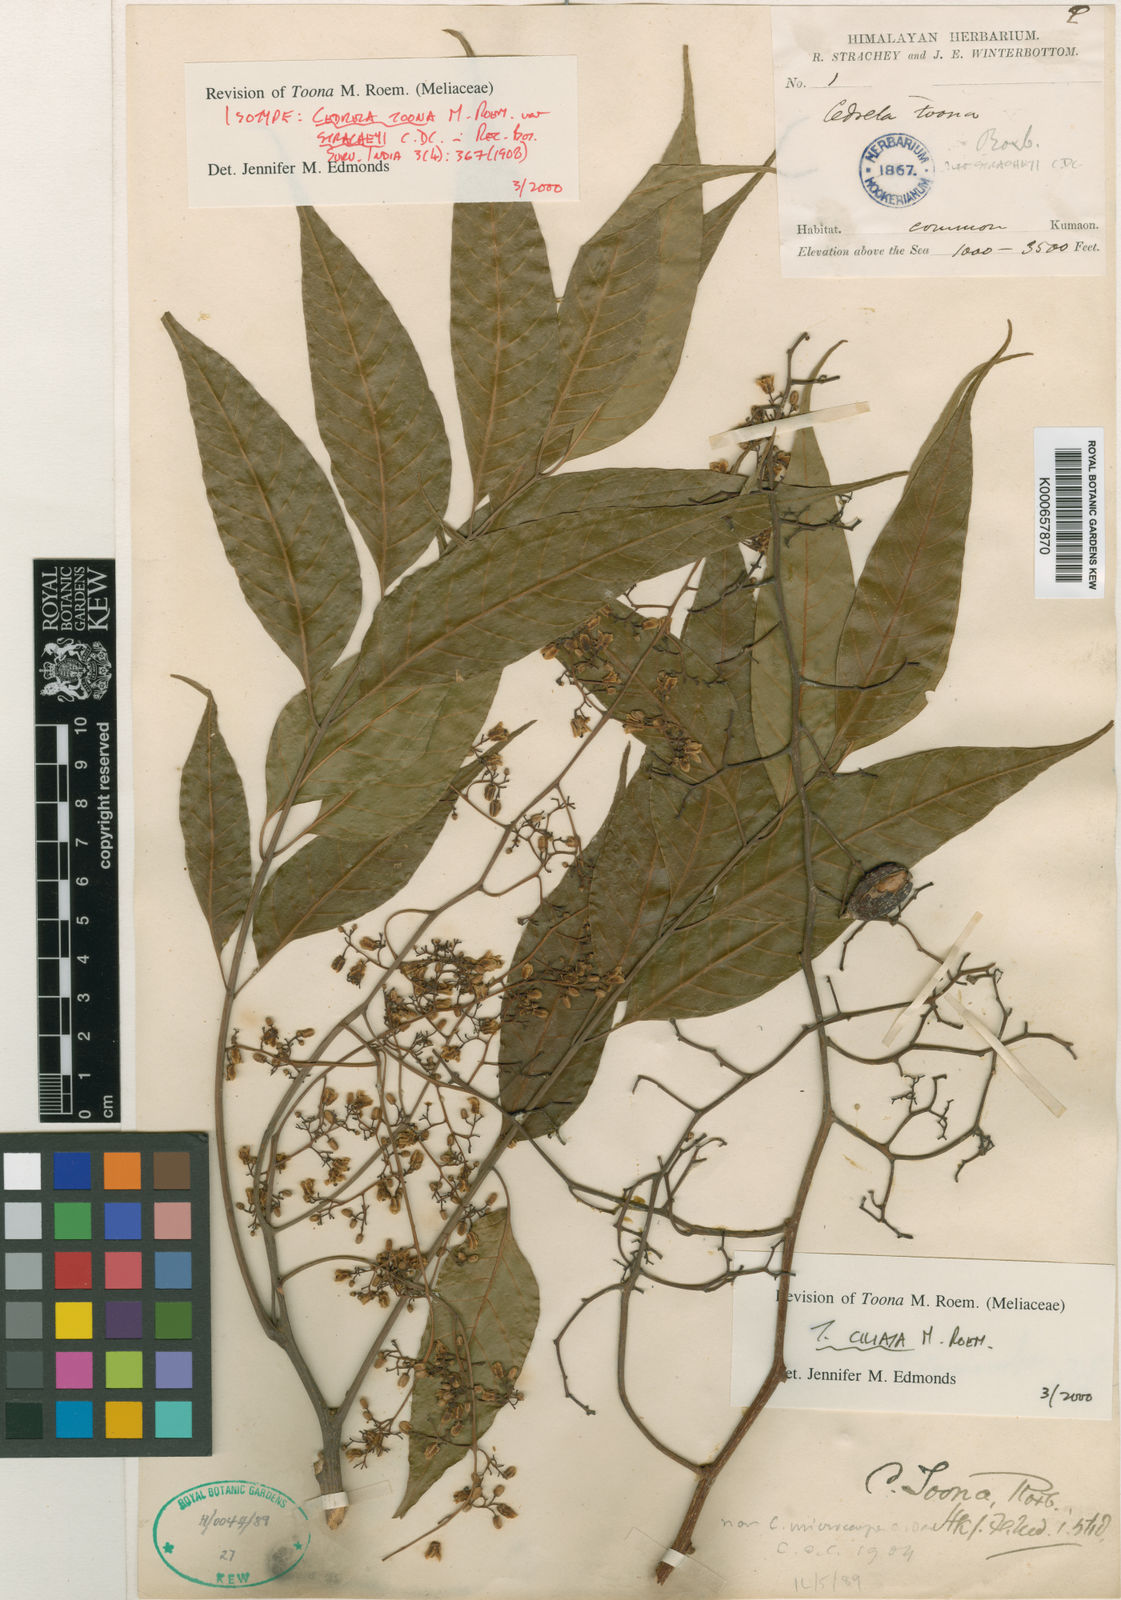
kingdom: Plantae
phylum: Tracheophyta
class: Magnoliopsida
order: Sapindales
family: Meliaceae
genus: Toona
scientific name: Toona ciliata
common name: Australian redcedar
